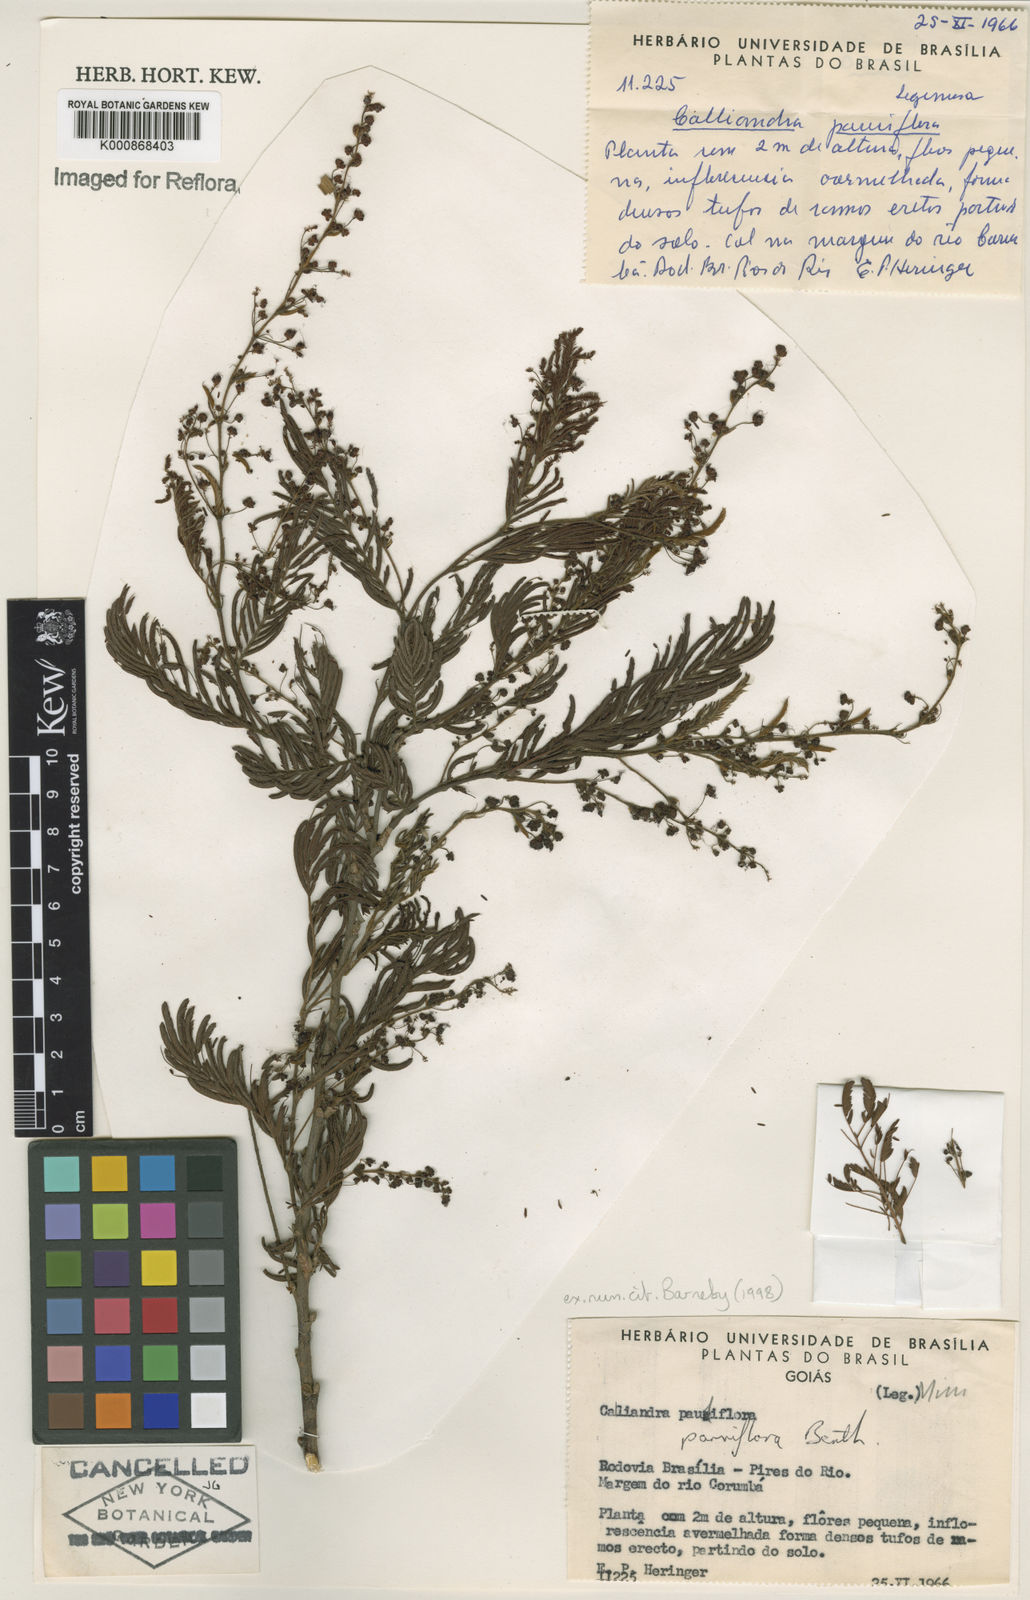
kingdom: Plantae
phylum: Tracheophyta
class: Magnoliopsida
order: Fabales
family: Fabaceae
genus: Calliandra
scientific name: Calliandra parviflora
